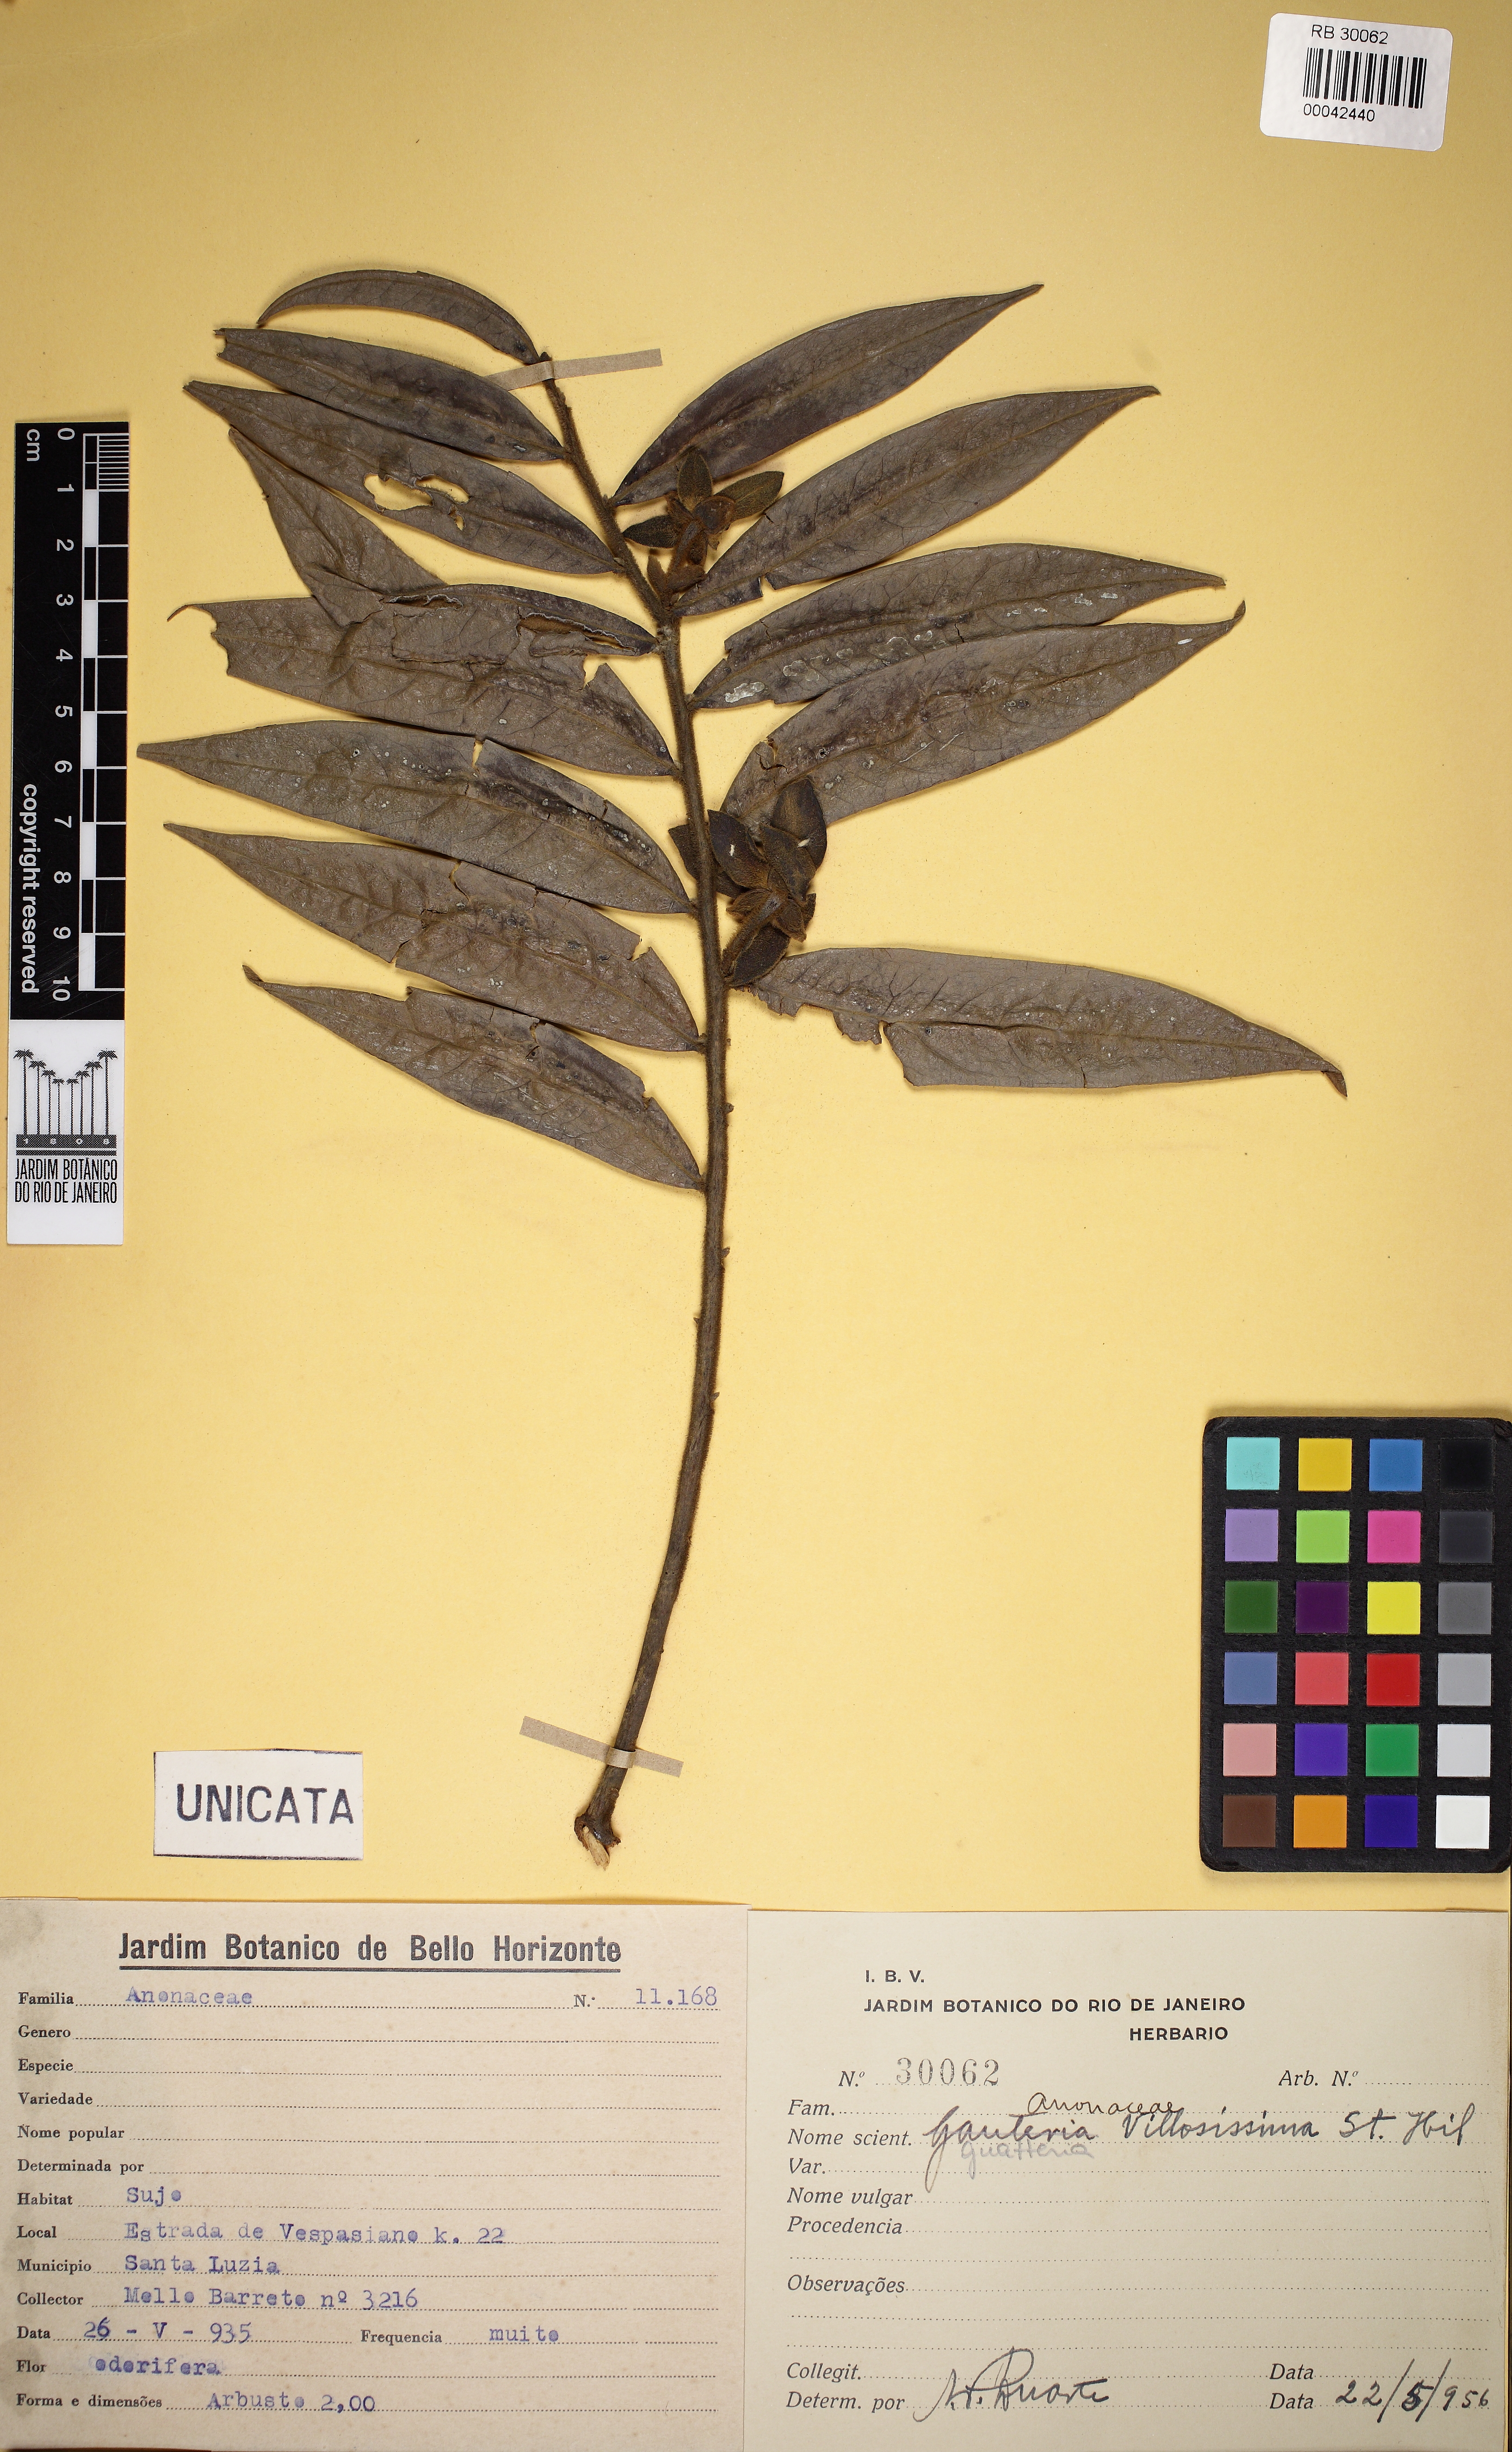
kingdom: Plantae
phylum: Tracheophyta
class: Magnoliopsida
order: Magnoliales
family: Annonaceae
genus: Guatteria
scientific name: Guatteria villosissima
